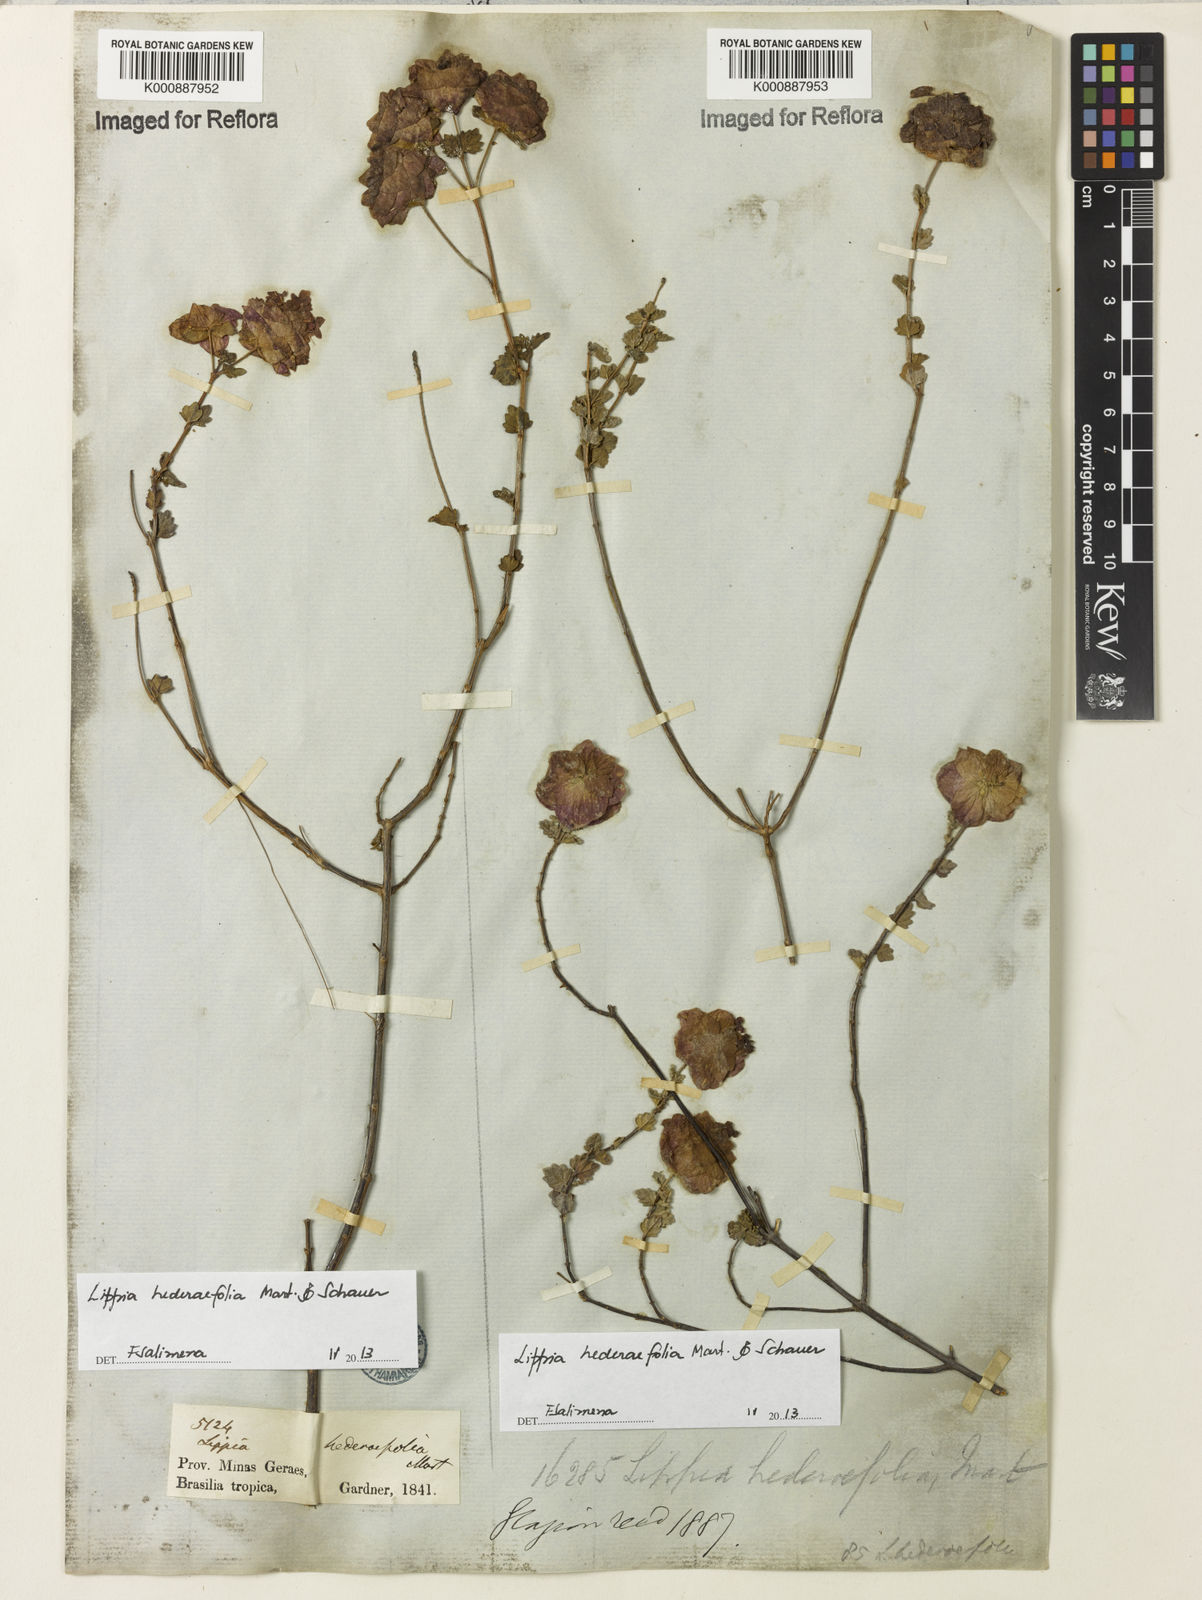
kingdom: Plantae
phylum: Tracheophyta
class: Magnoliopsida
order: Lamiales
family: Verbenaceae
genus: Lippia
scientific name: Lippia hederifolia
